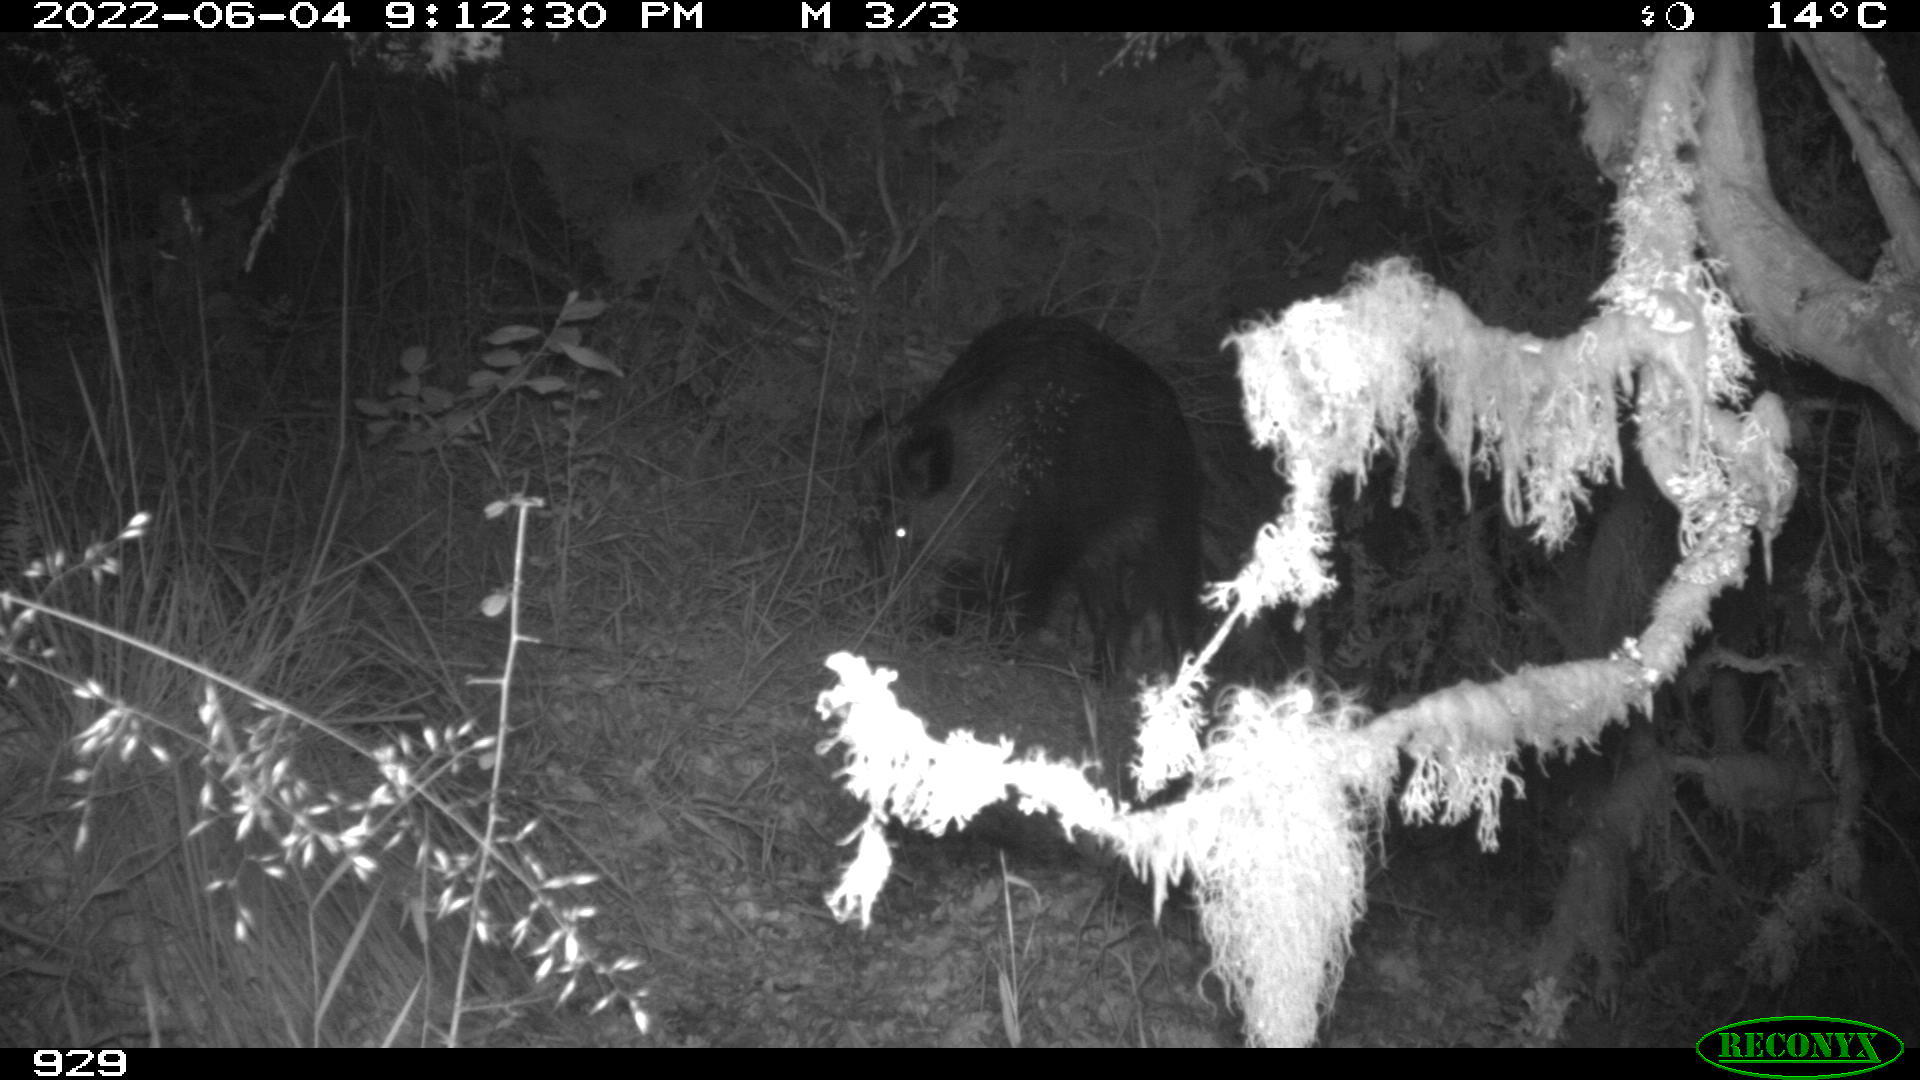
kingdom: Animalia
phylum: Chordata
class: Mammalia
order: Artiodactyla
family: Suidae
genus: Sus
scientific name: Sus scrofa
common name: Wild boar
